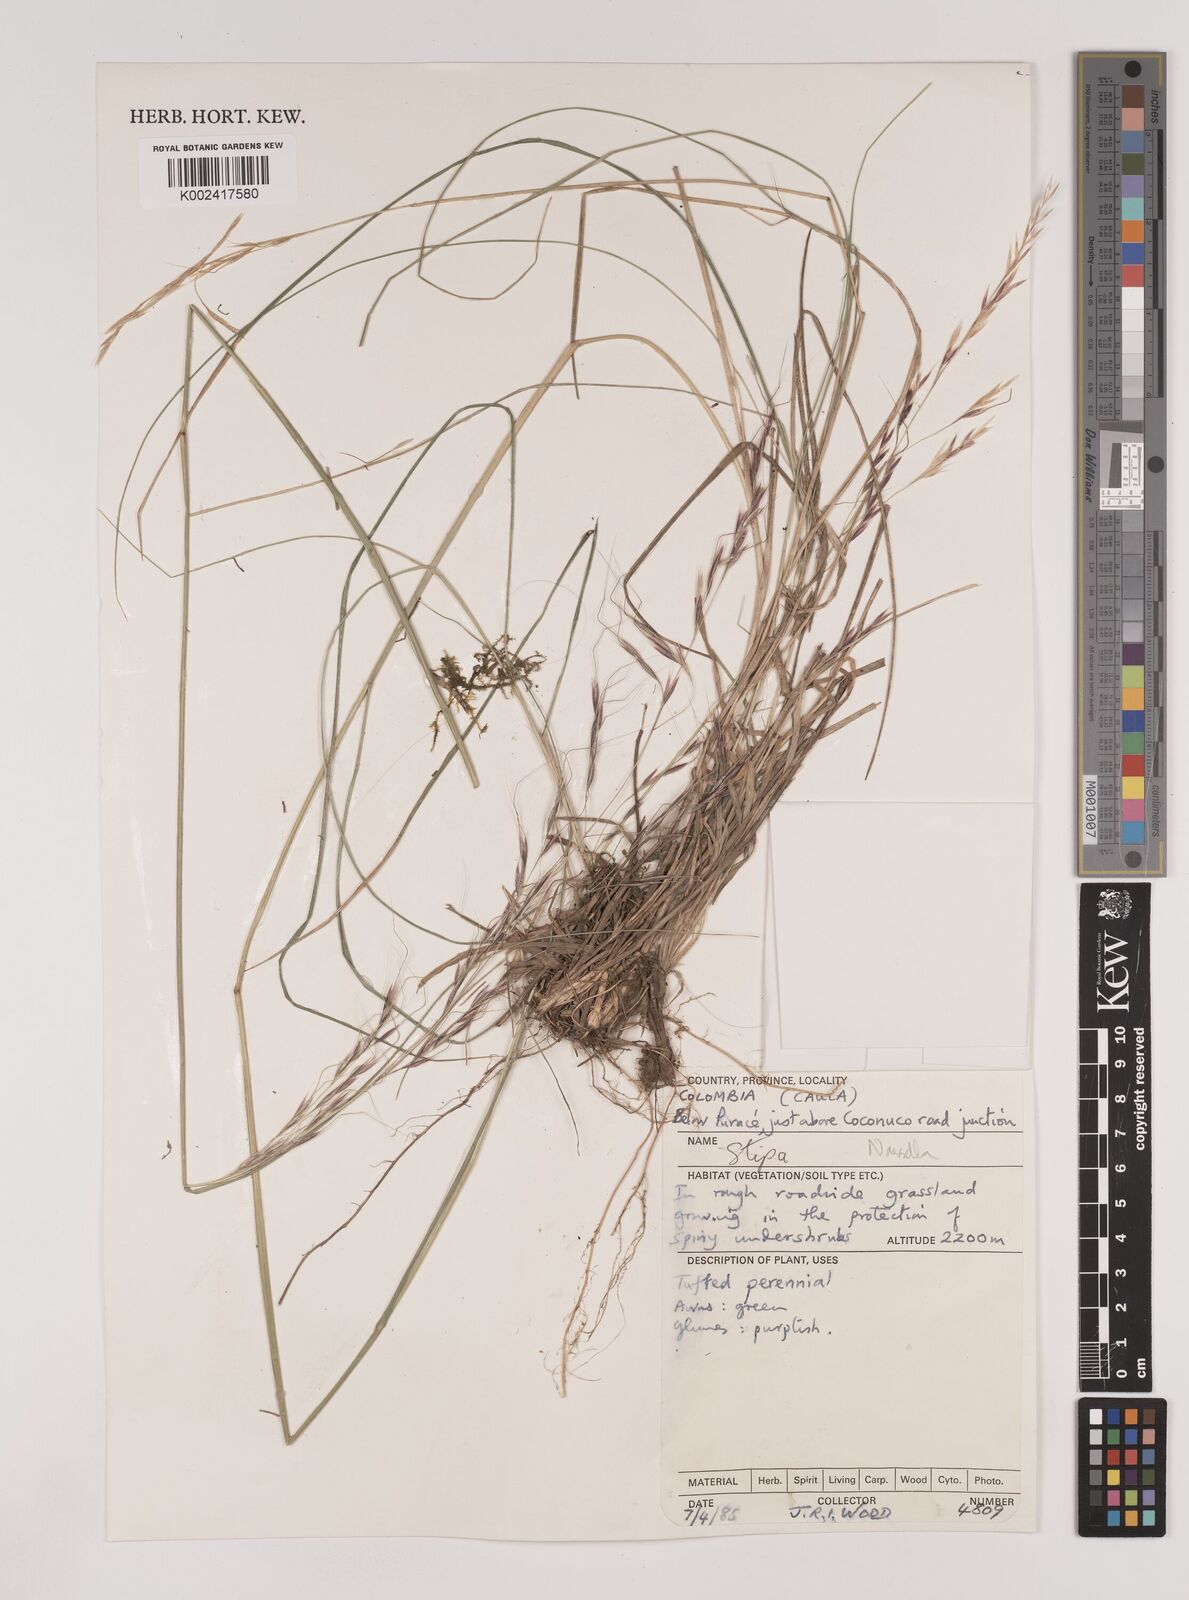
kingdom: Plantae
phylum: Tracheophyta
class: Liliopsida
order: Poales
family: Poaceae
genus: Nassella
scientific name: Nassella
